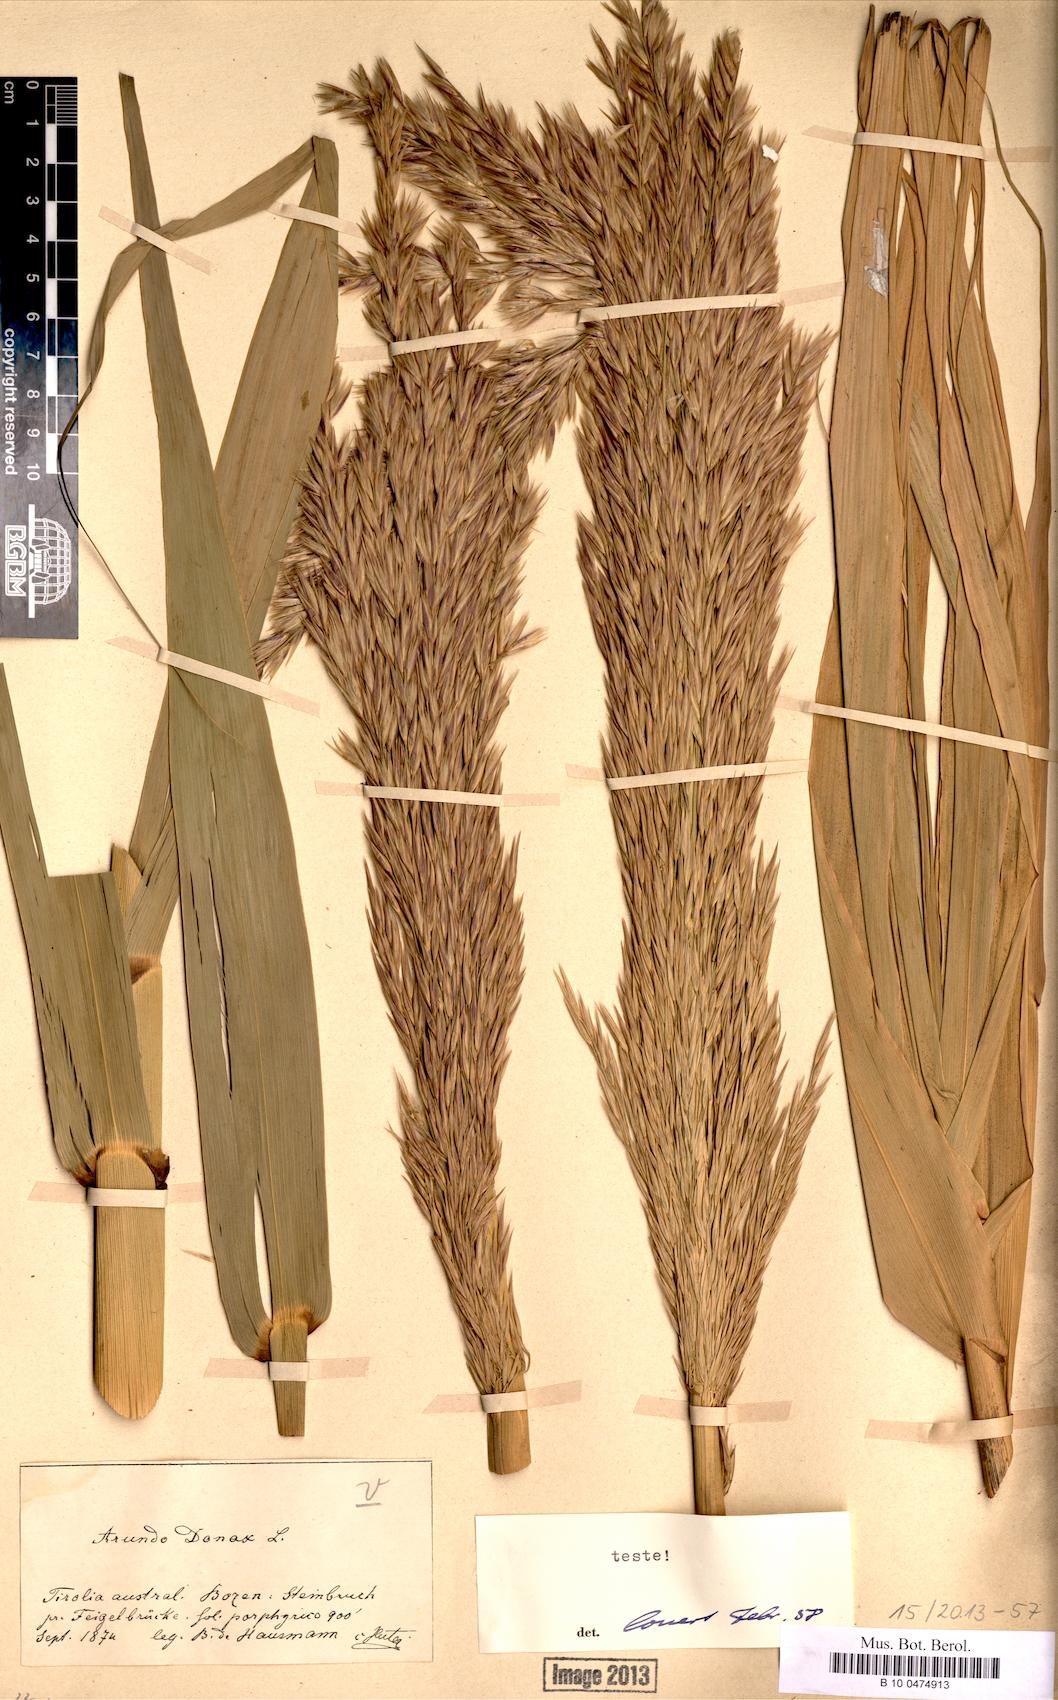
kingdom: Plantae
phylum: Tracheophyta
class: Liliopsida
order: Poales
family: Poaceae
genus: Arundo
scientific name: Arundo donax
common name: Giant reed
